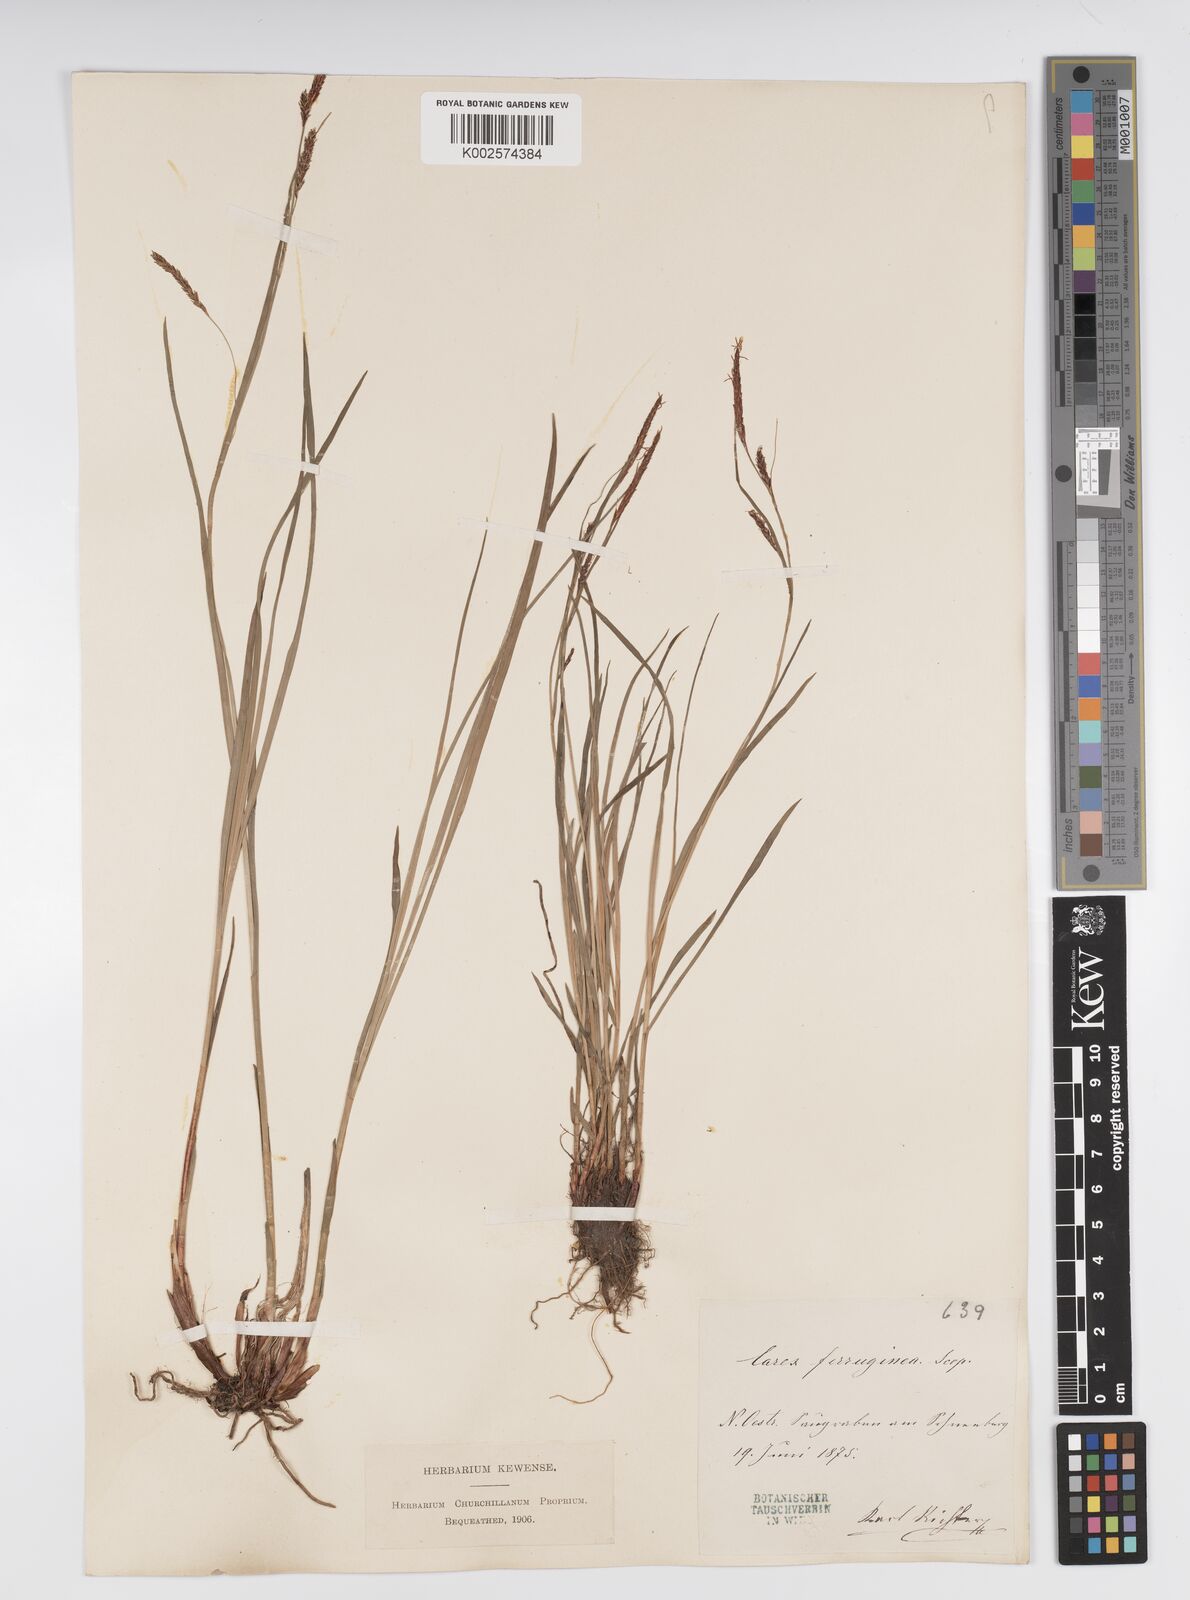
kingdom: Plantae
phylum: Tracheophyta
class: Liliopsida
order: Poales
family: Cyperaceae
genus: Carex
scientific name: Carex firma
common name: Dwarf pillow sedge
